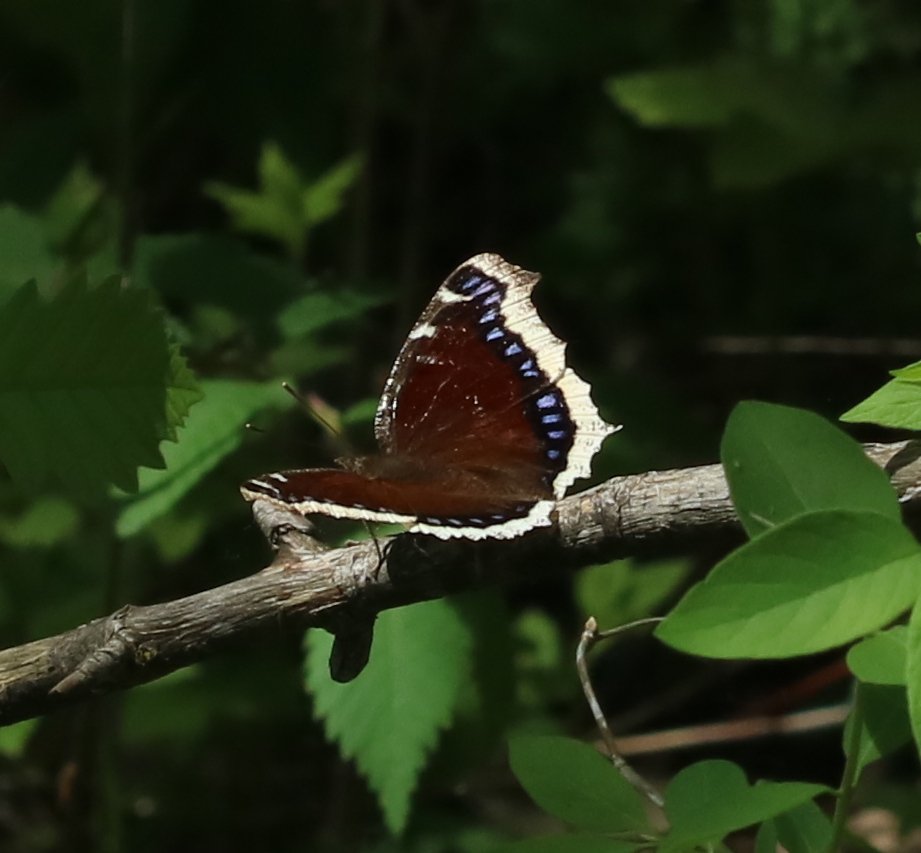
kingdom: Animalia
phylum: Arthropoda
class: Insecta
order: Lepidoptera
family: Nymphalidae
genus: Nymphalis
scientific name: Nymphalis antiopa
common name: Mourning Cloak
